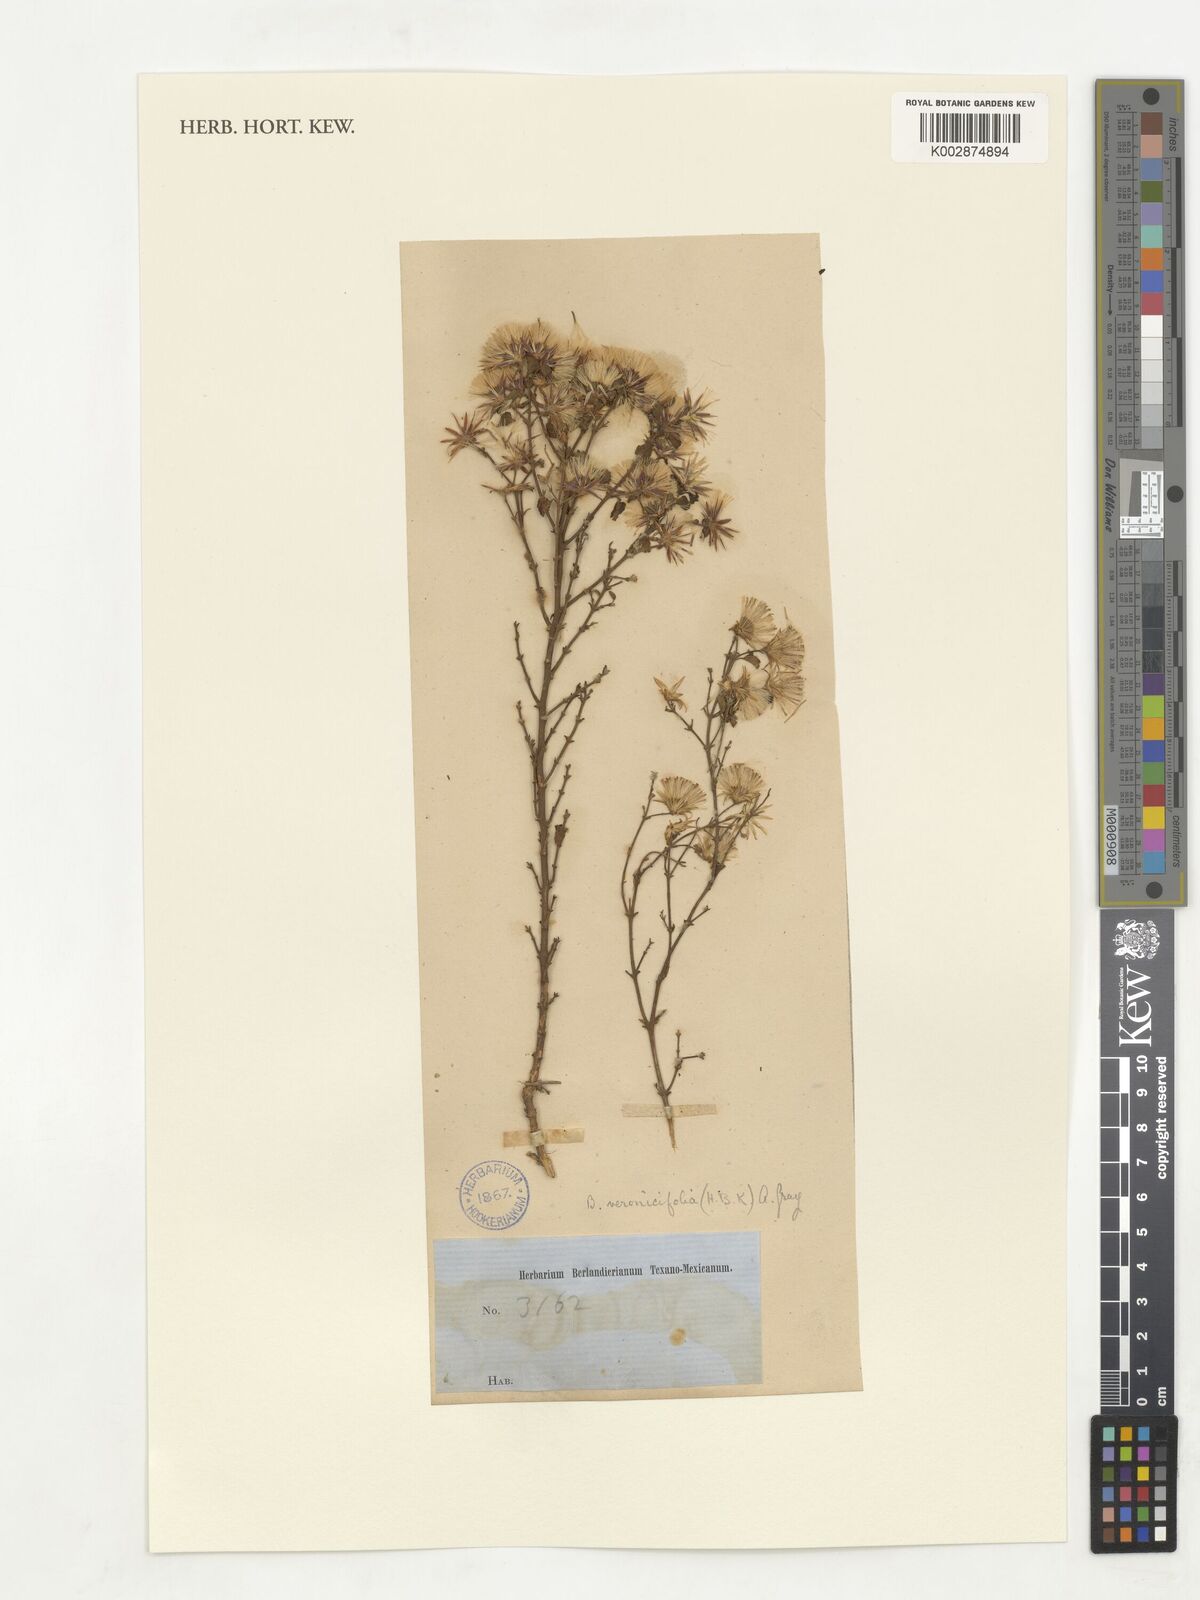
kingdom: Plantae
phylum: Tracheophyta
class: Magnoliopsida
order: Asterales
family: Asteraceae
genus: Brickellia
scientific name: Brickellia veronicifolia
